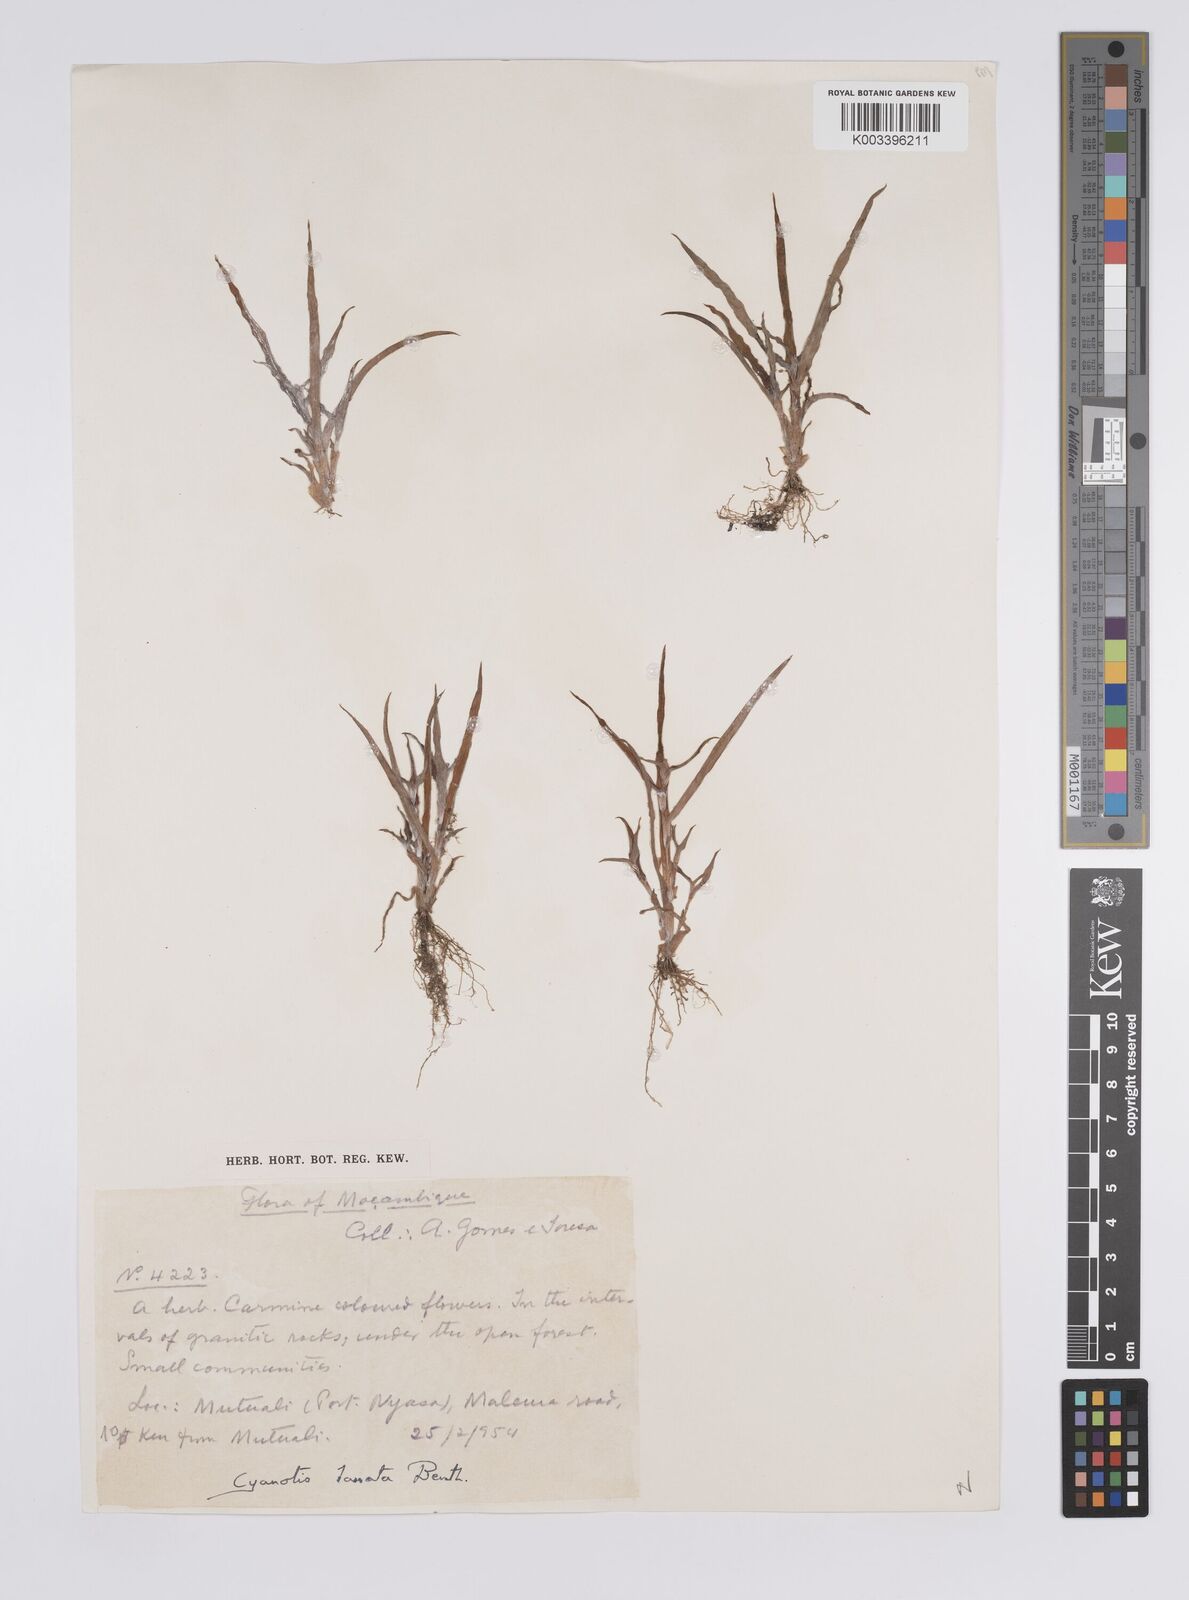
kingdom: Plantae
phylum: Tracheophyta
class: Liliopsida
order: Commelinales
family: Commelinaceae
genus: Cyanotis
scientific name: Cyanotis lanata
